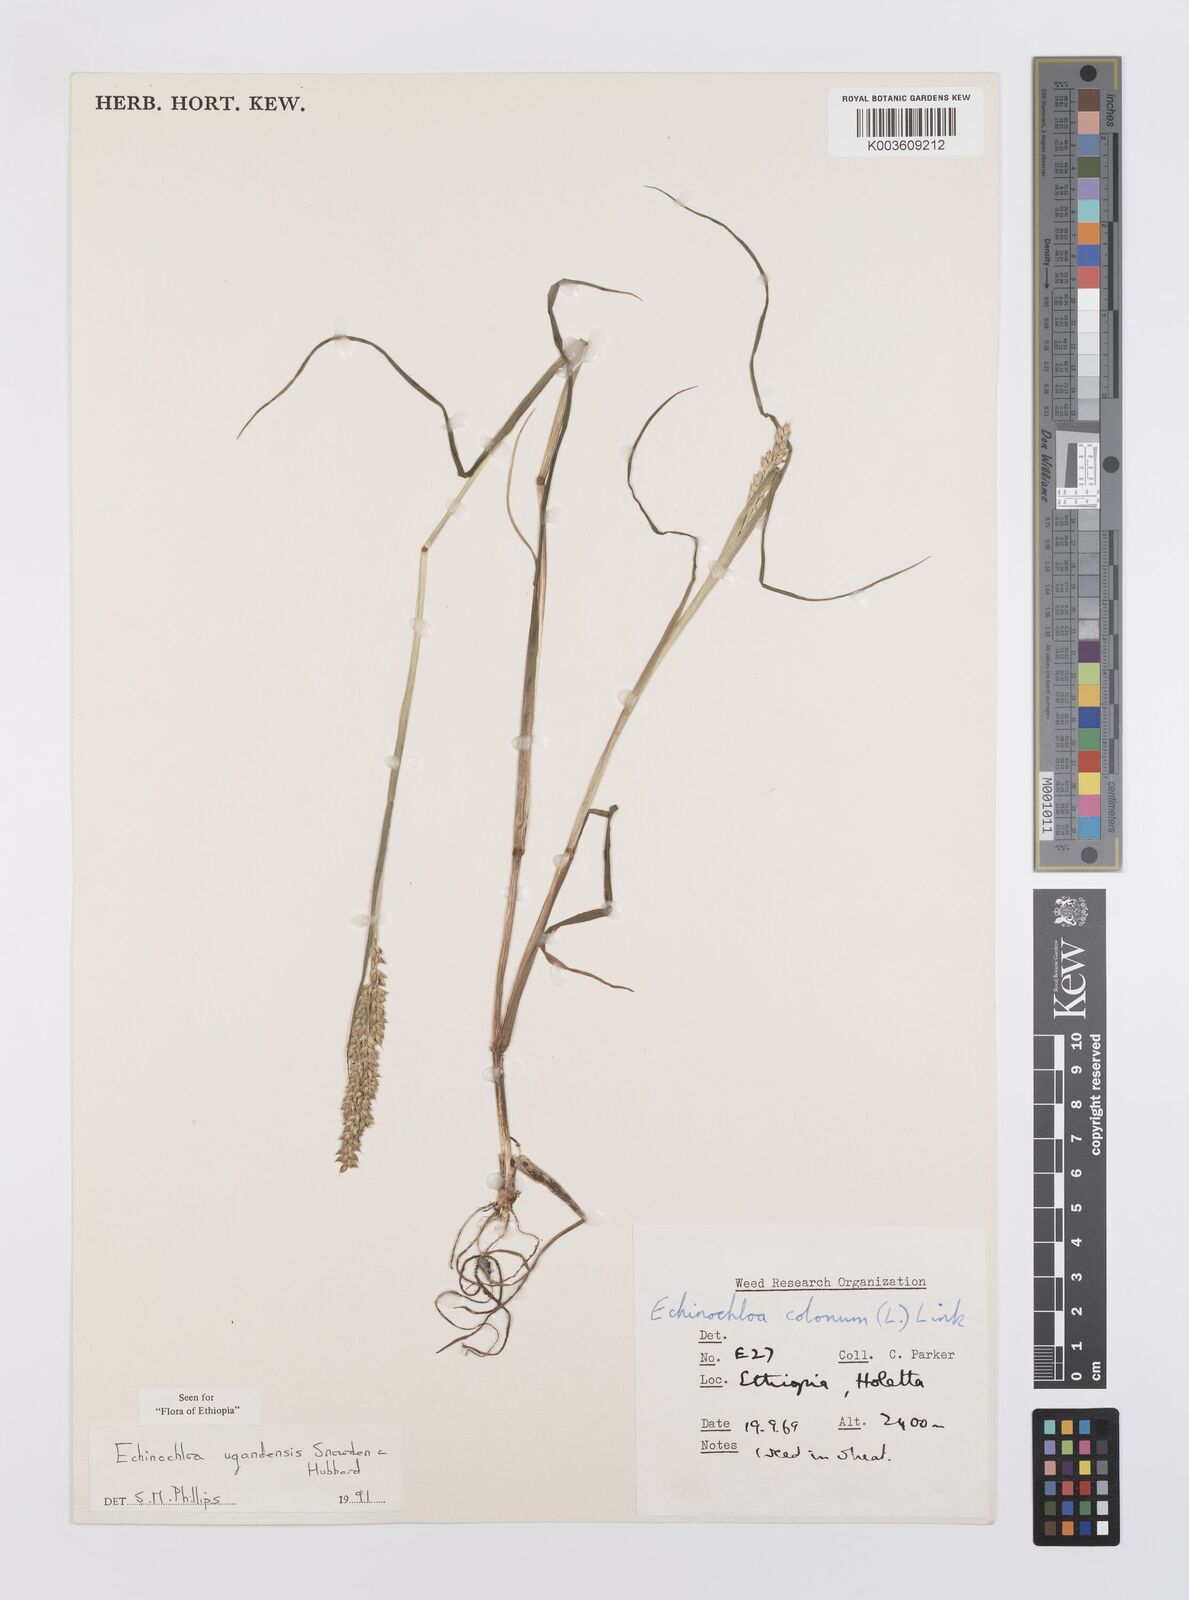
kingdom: Plantae
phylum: Tracheophyta
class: Liliopsida
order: Poales
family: Poaceae
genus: Echinochloa
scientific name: Echinochloa ugandensis
